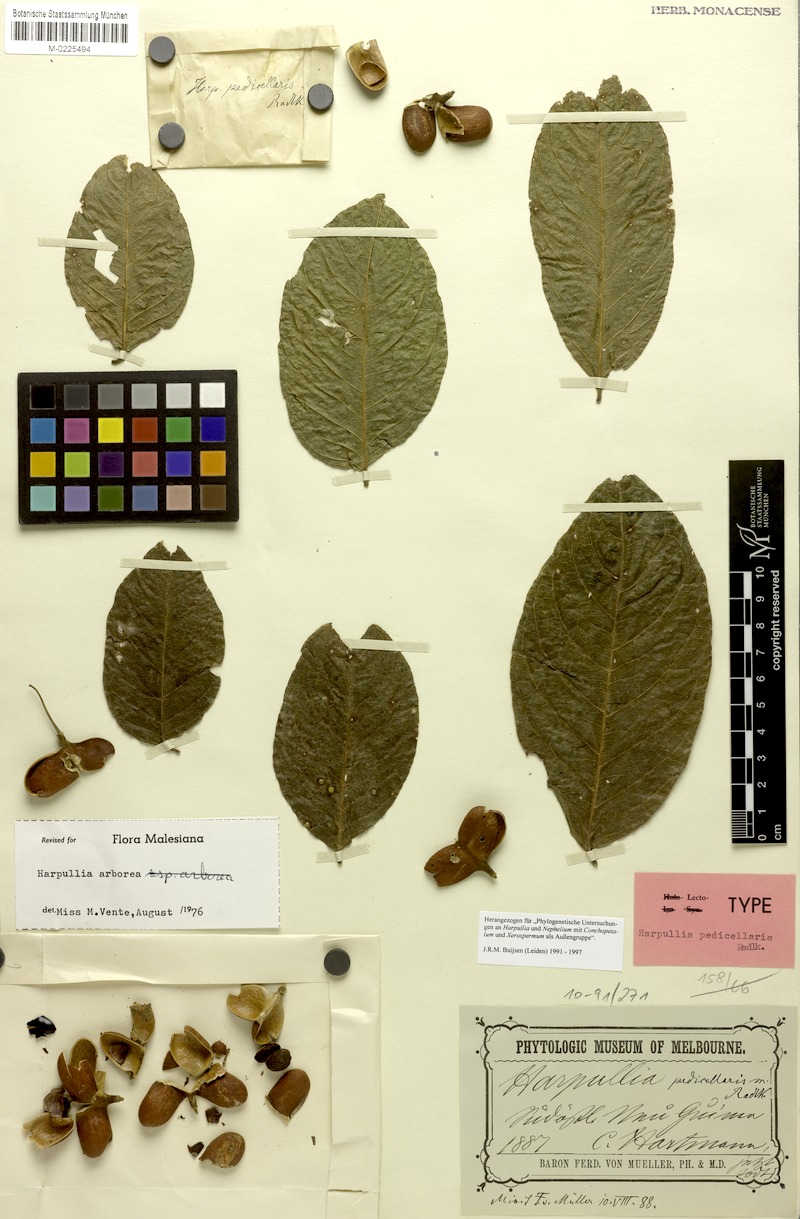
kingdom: Plantae
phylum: Tracheophyta
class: Magnoliopsida
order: Sapindales
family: Sapindaceae
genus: Harpullia
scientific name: Harpullia arborea
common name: Tulip-wood tree
